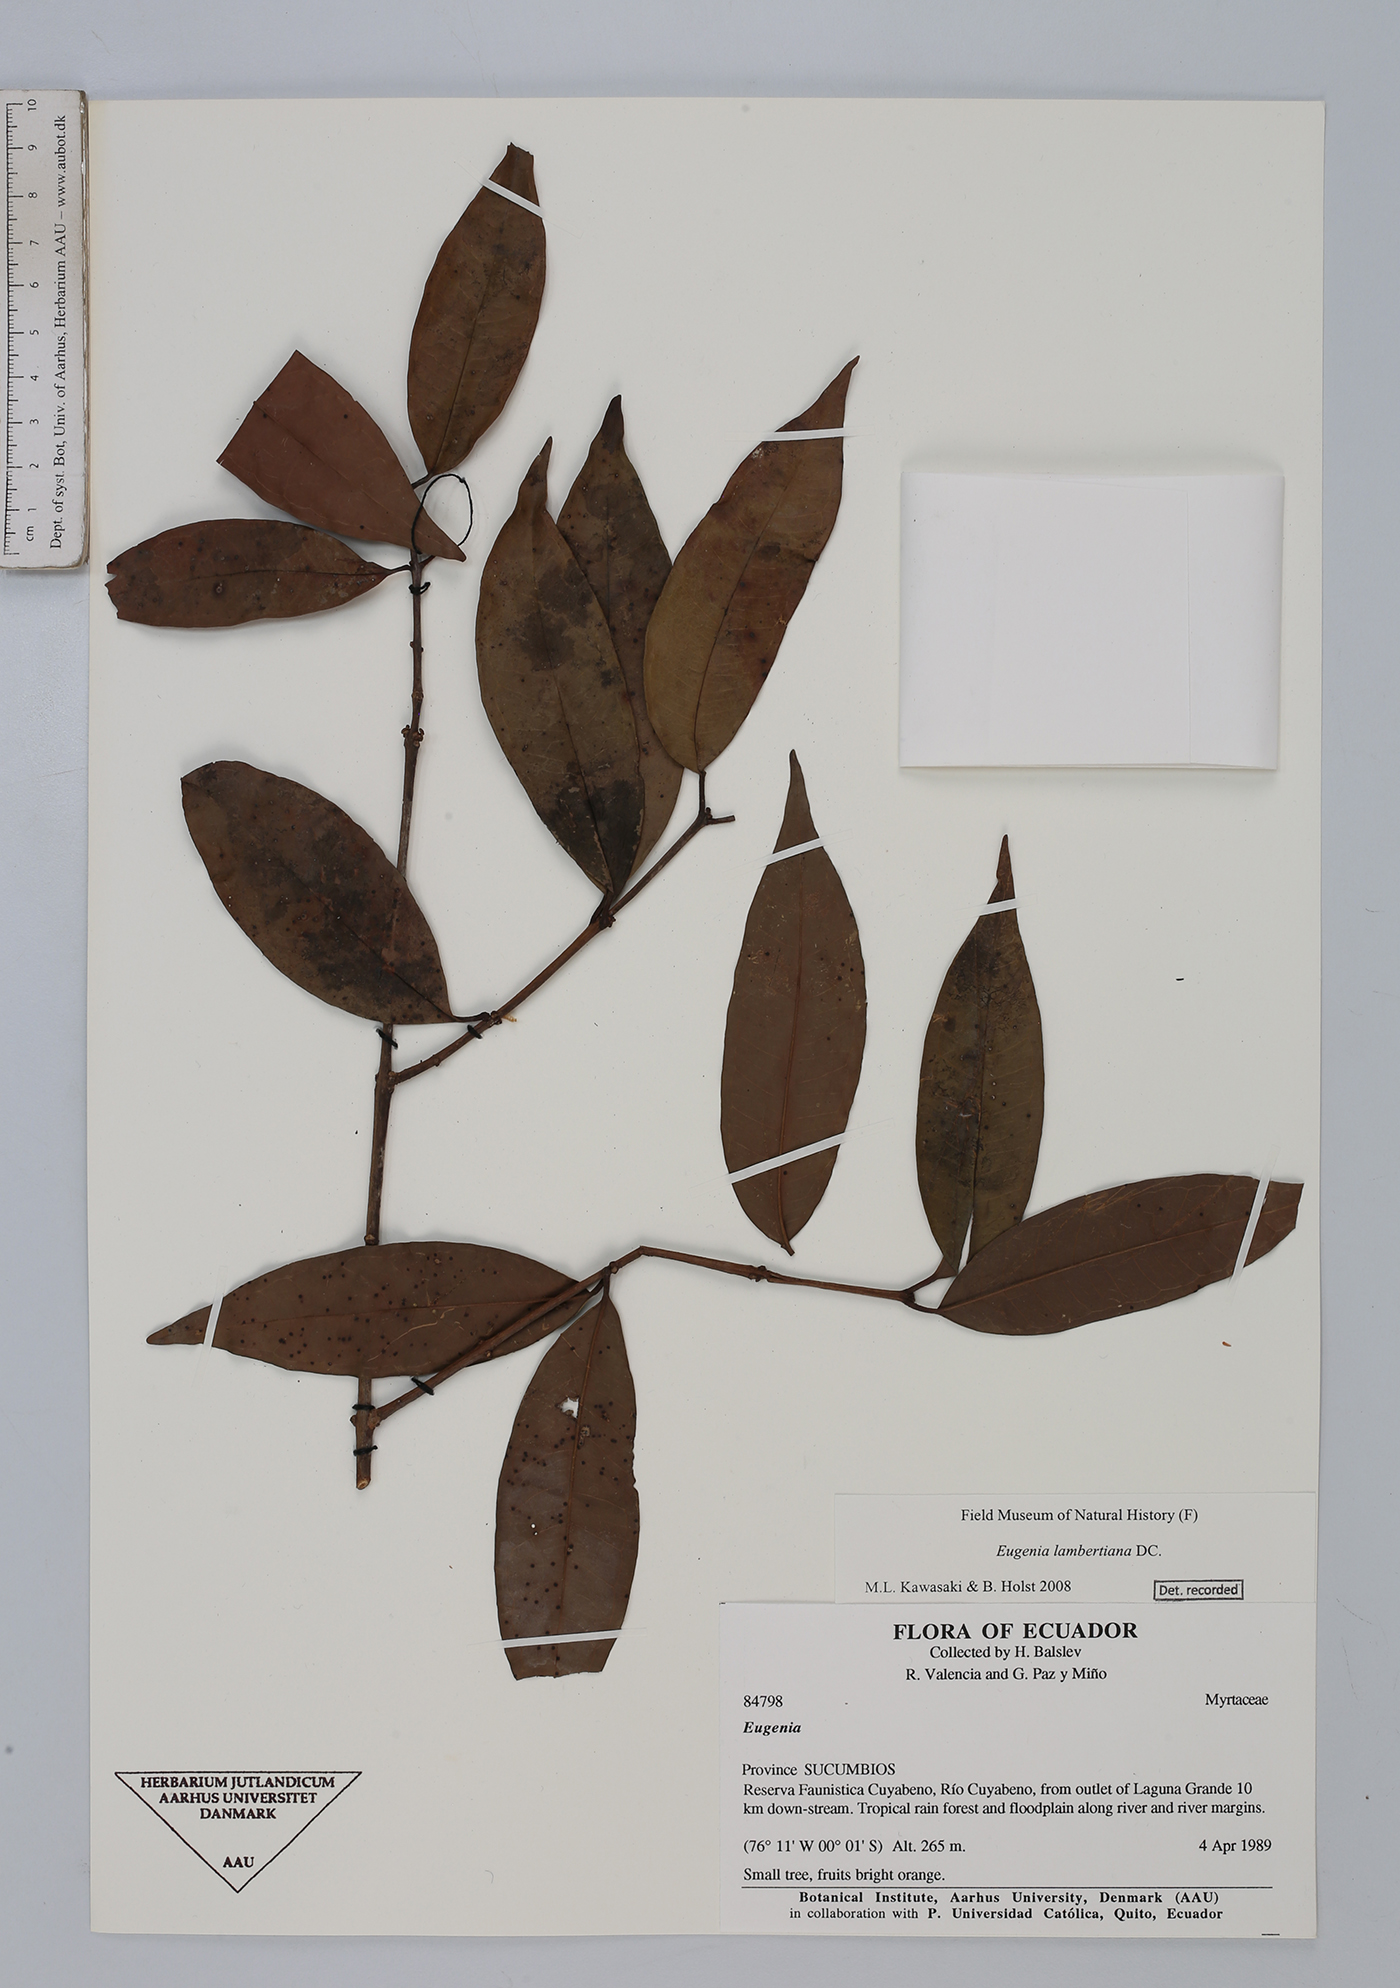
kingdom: Plantae
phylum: Tracheophyta
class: Magnoliopsida
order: Myrtales
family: Myrtaceae
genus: Eugenia
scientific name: Eugenia lambertiana
